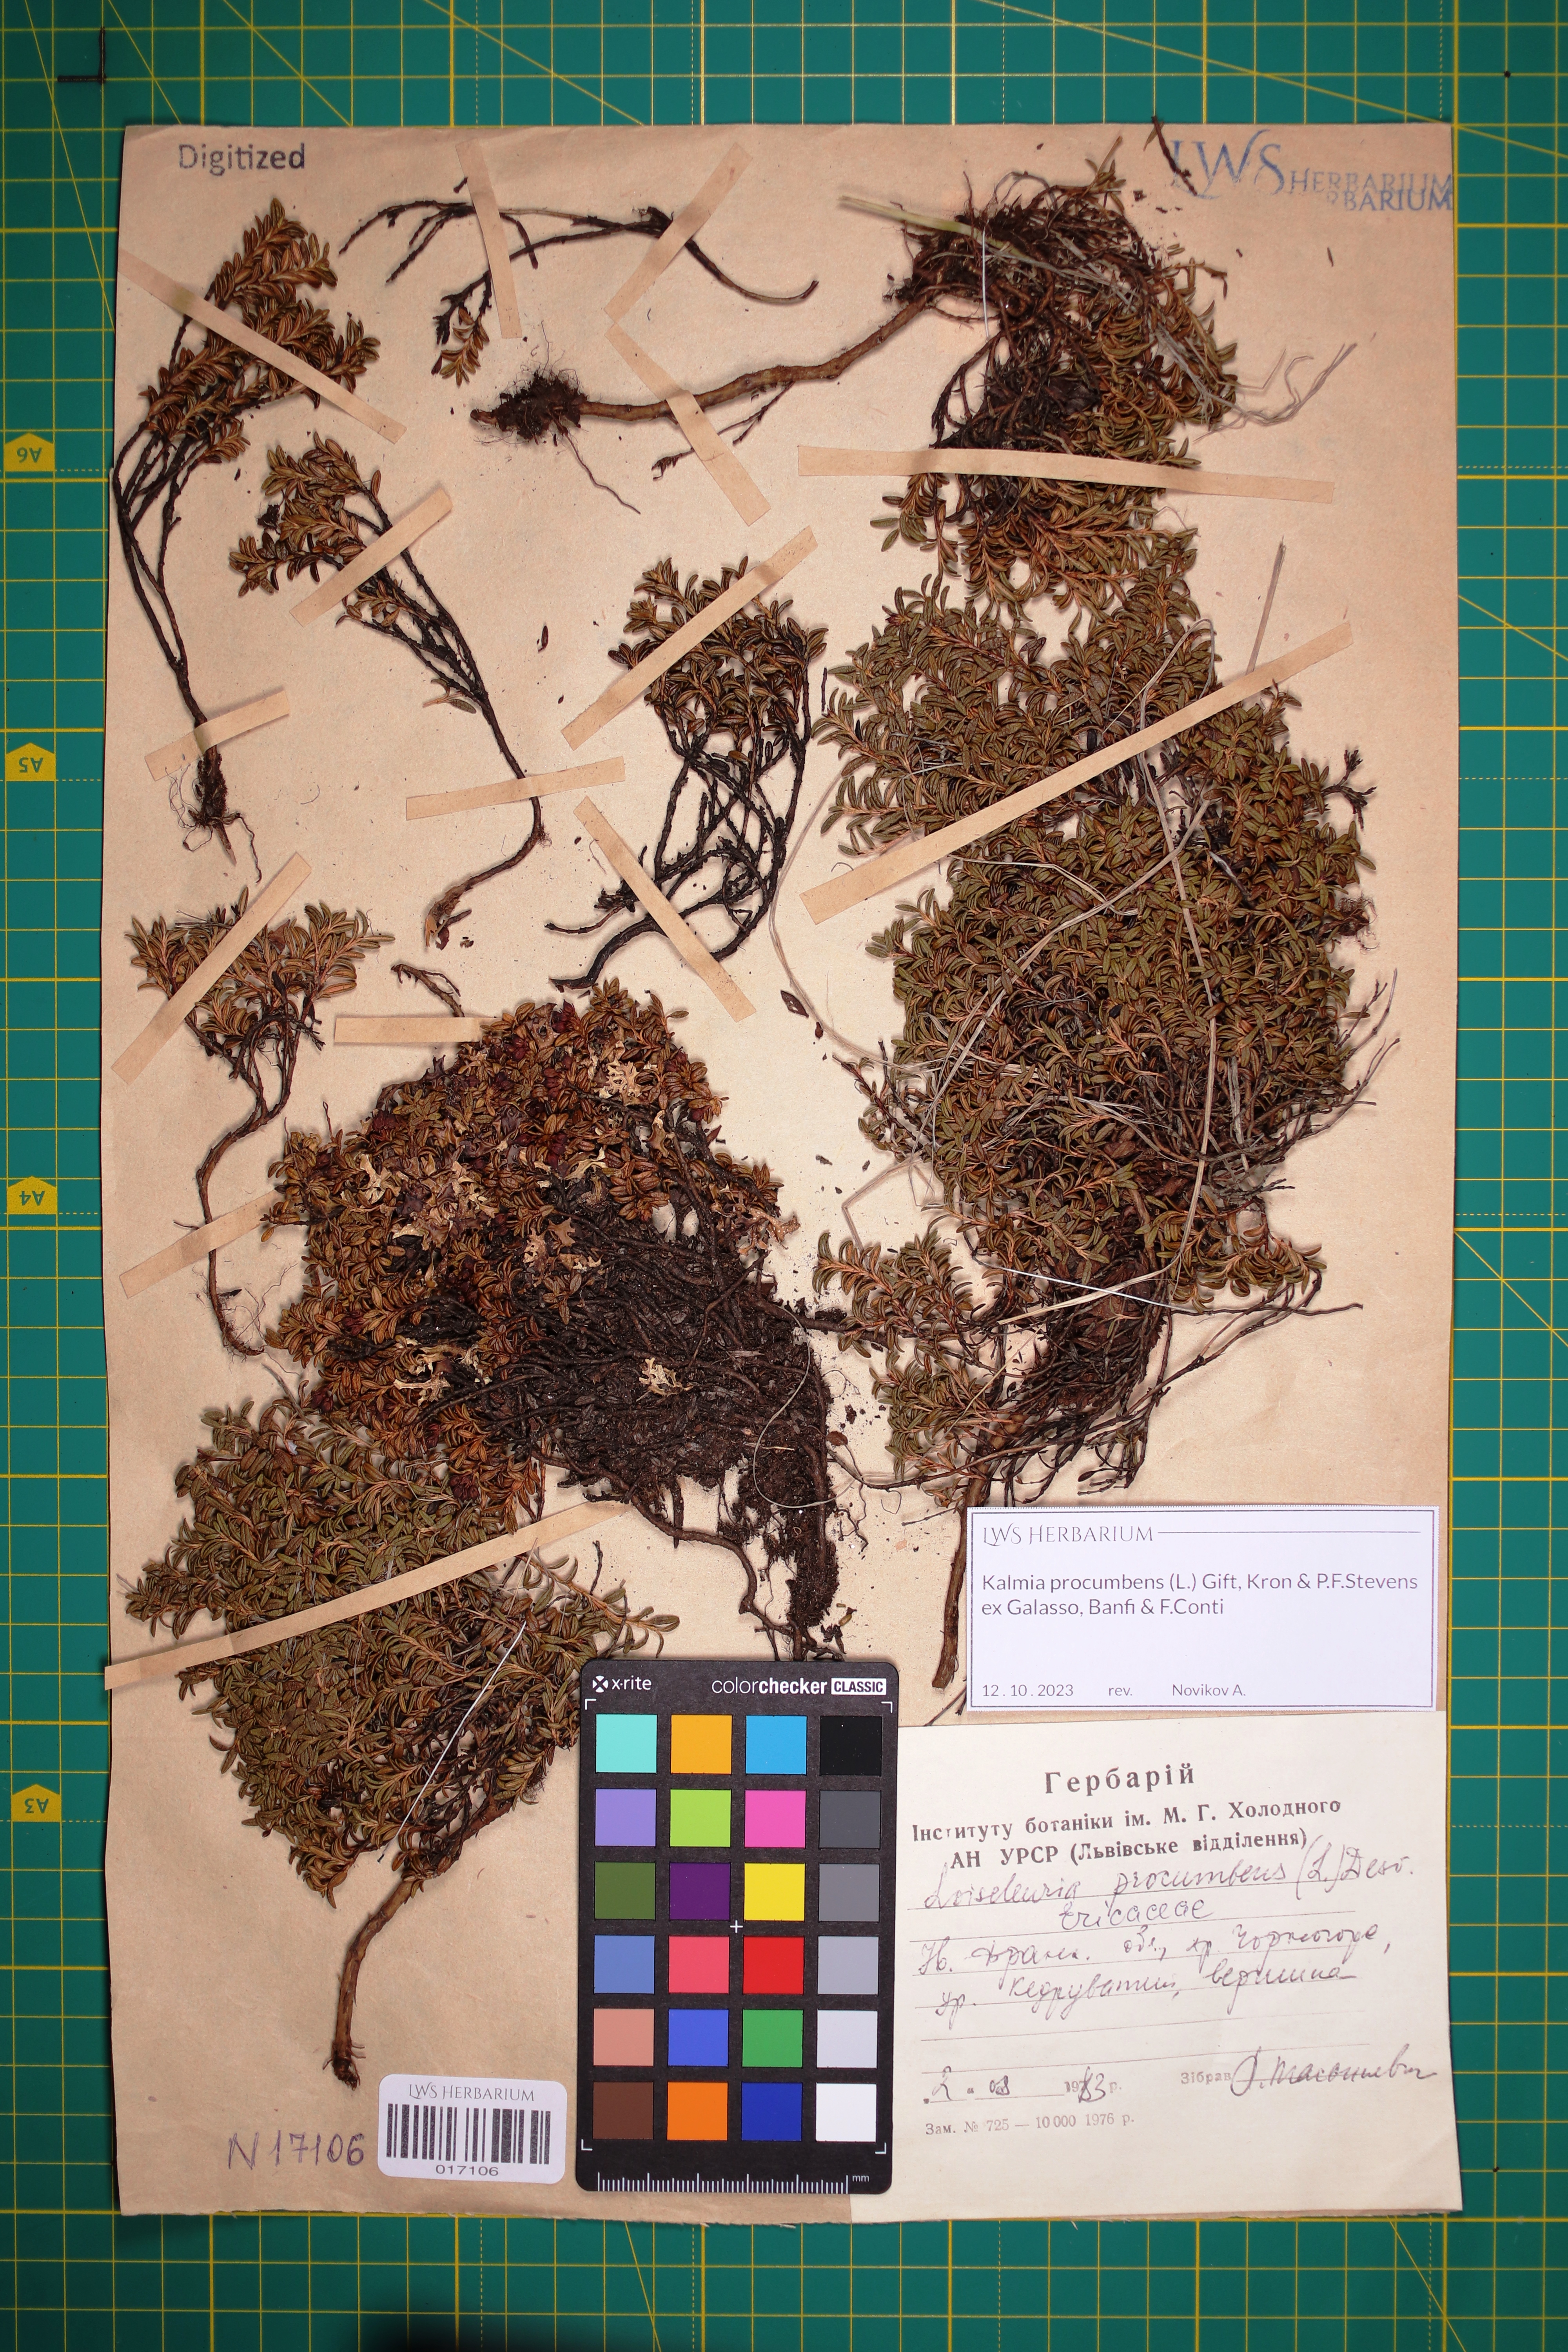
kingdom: Plantae
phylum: Tracheophyta
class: Magnoliopsida
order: Ericales
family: Ericaceae
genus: Kalmia
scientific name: Kalmia procumbens
